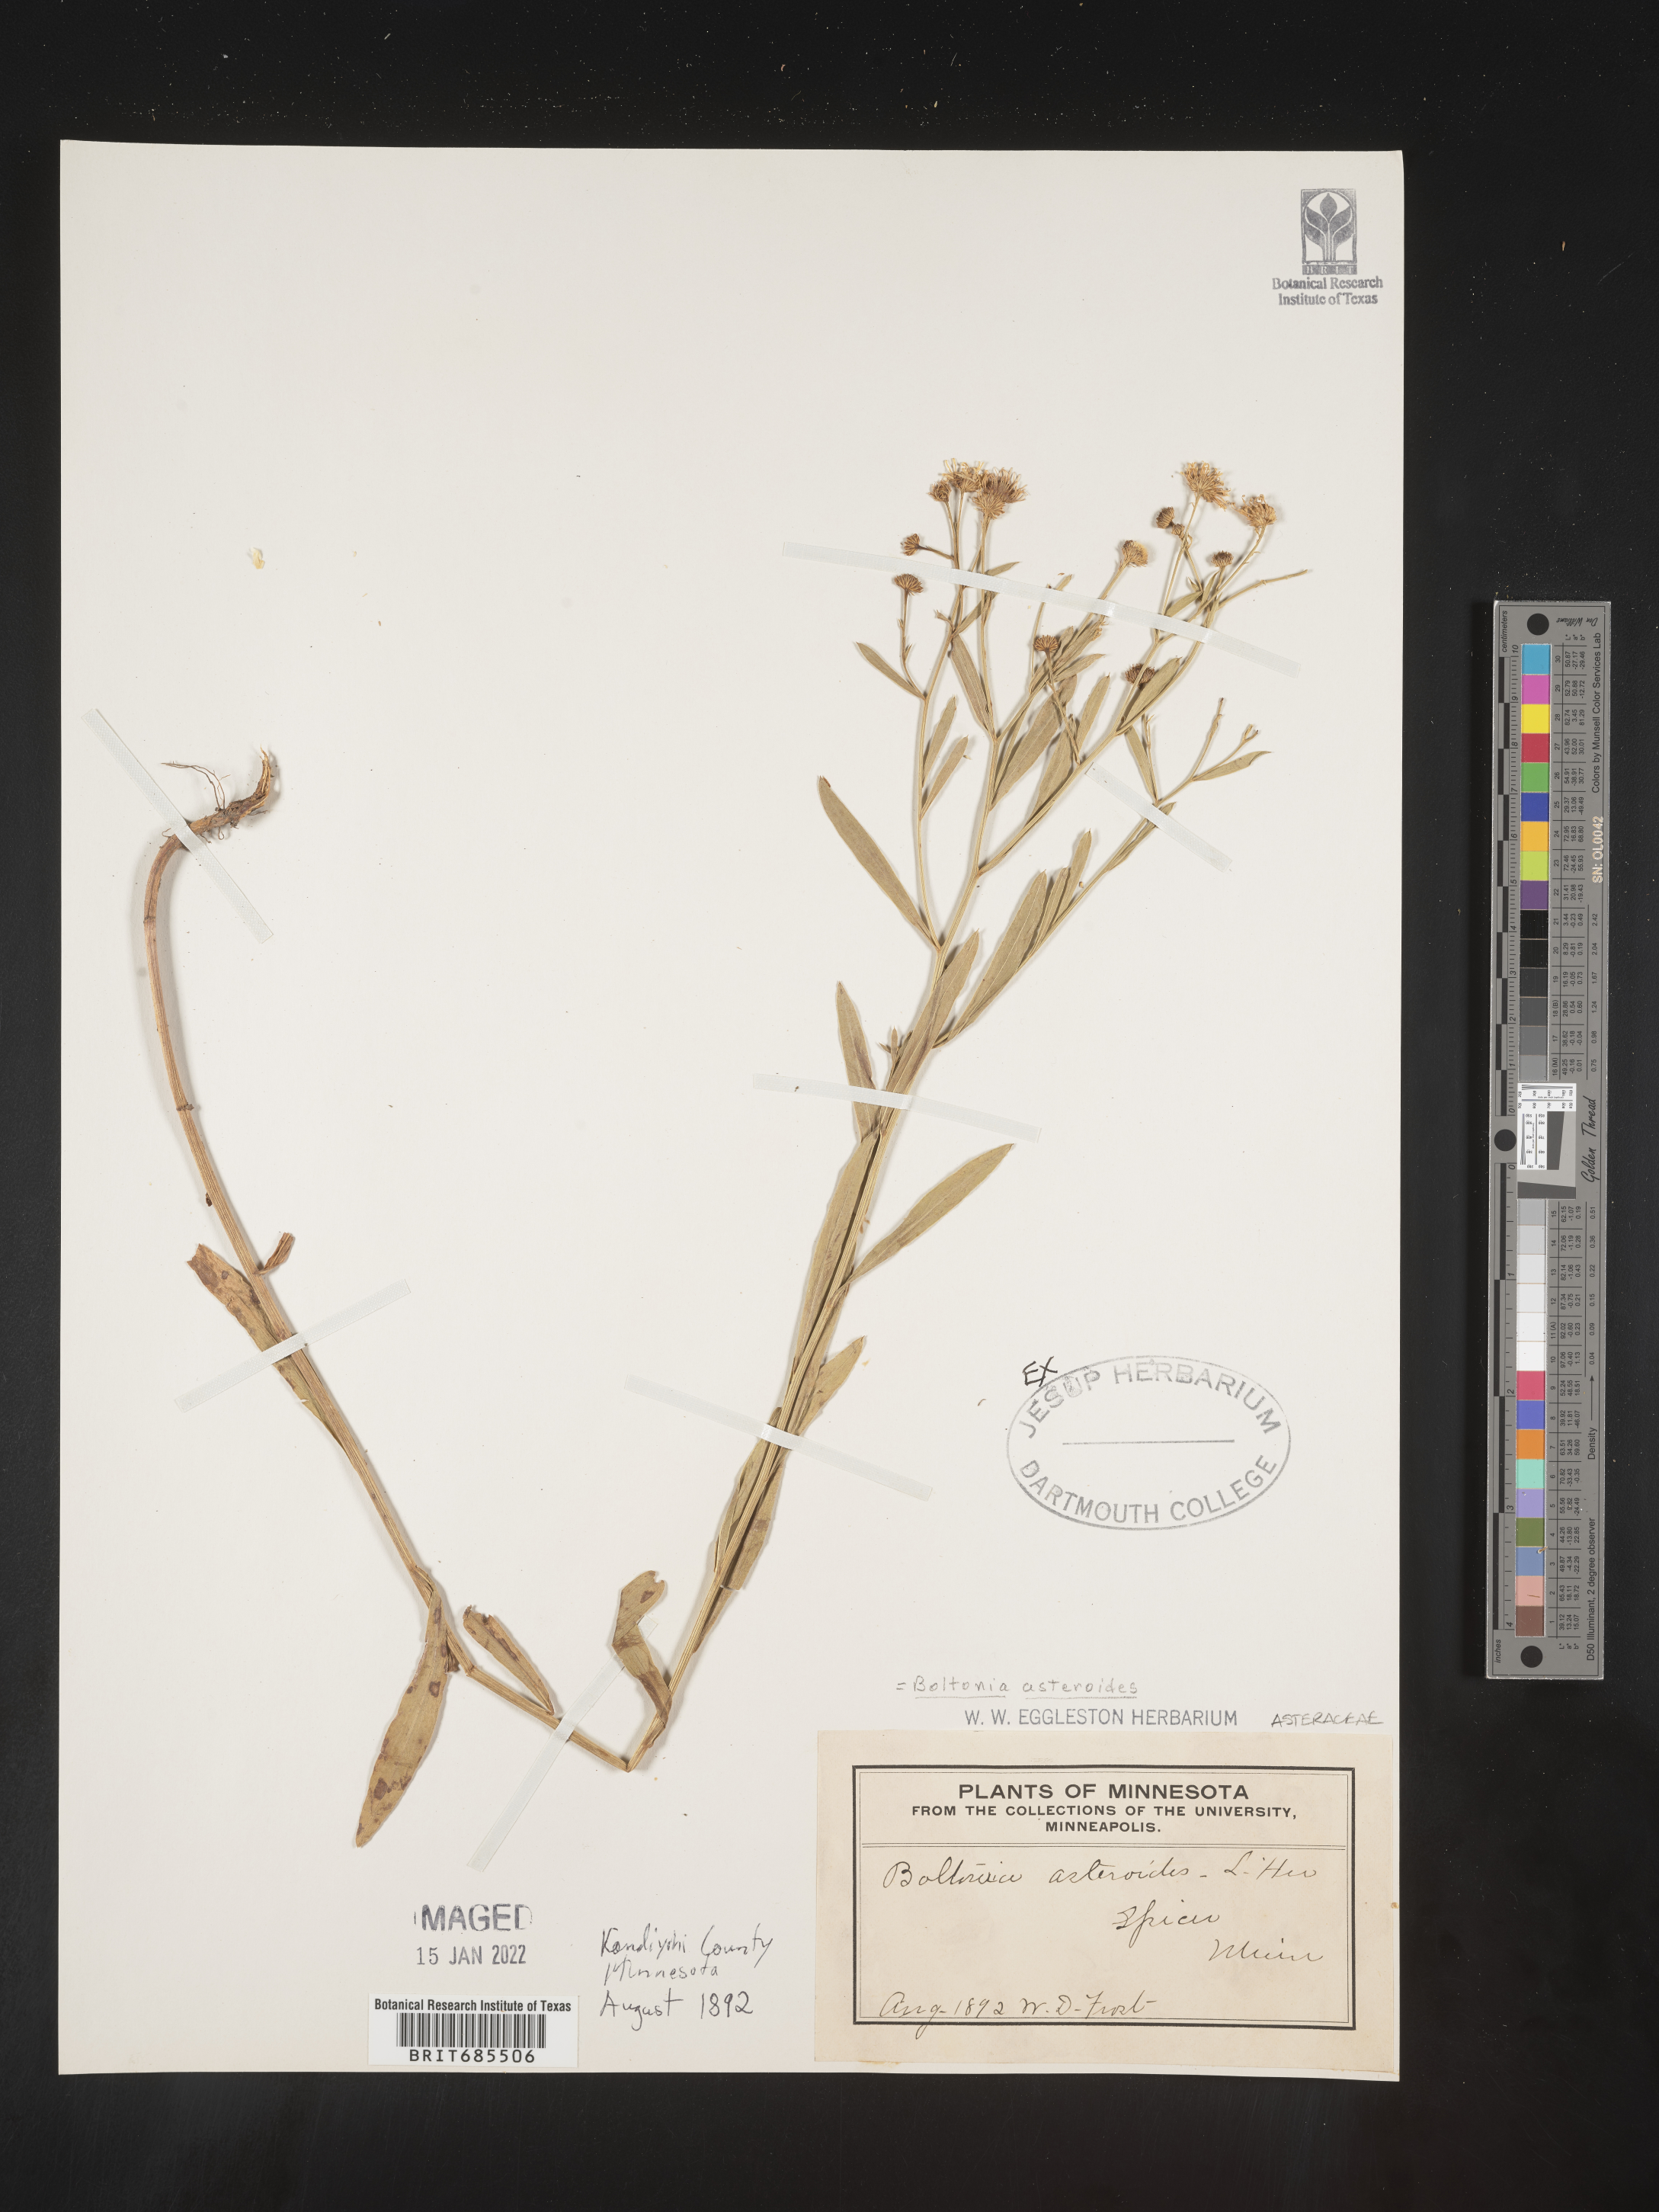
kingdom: Plantae
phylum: Tracheophyta
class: Magnoliopsida
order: Asterales
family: Asteraceae
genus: Boltonia
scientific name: Boltonia asteroides
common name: False chamomile
